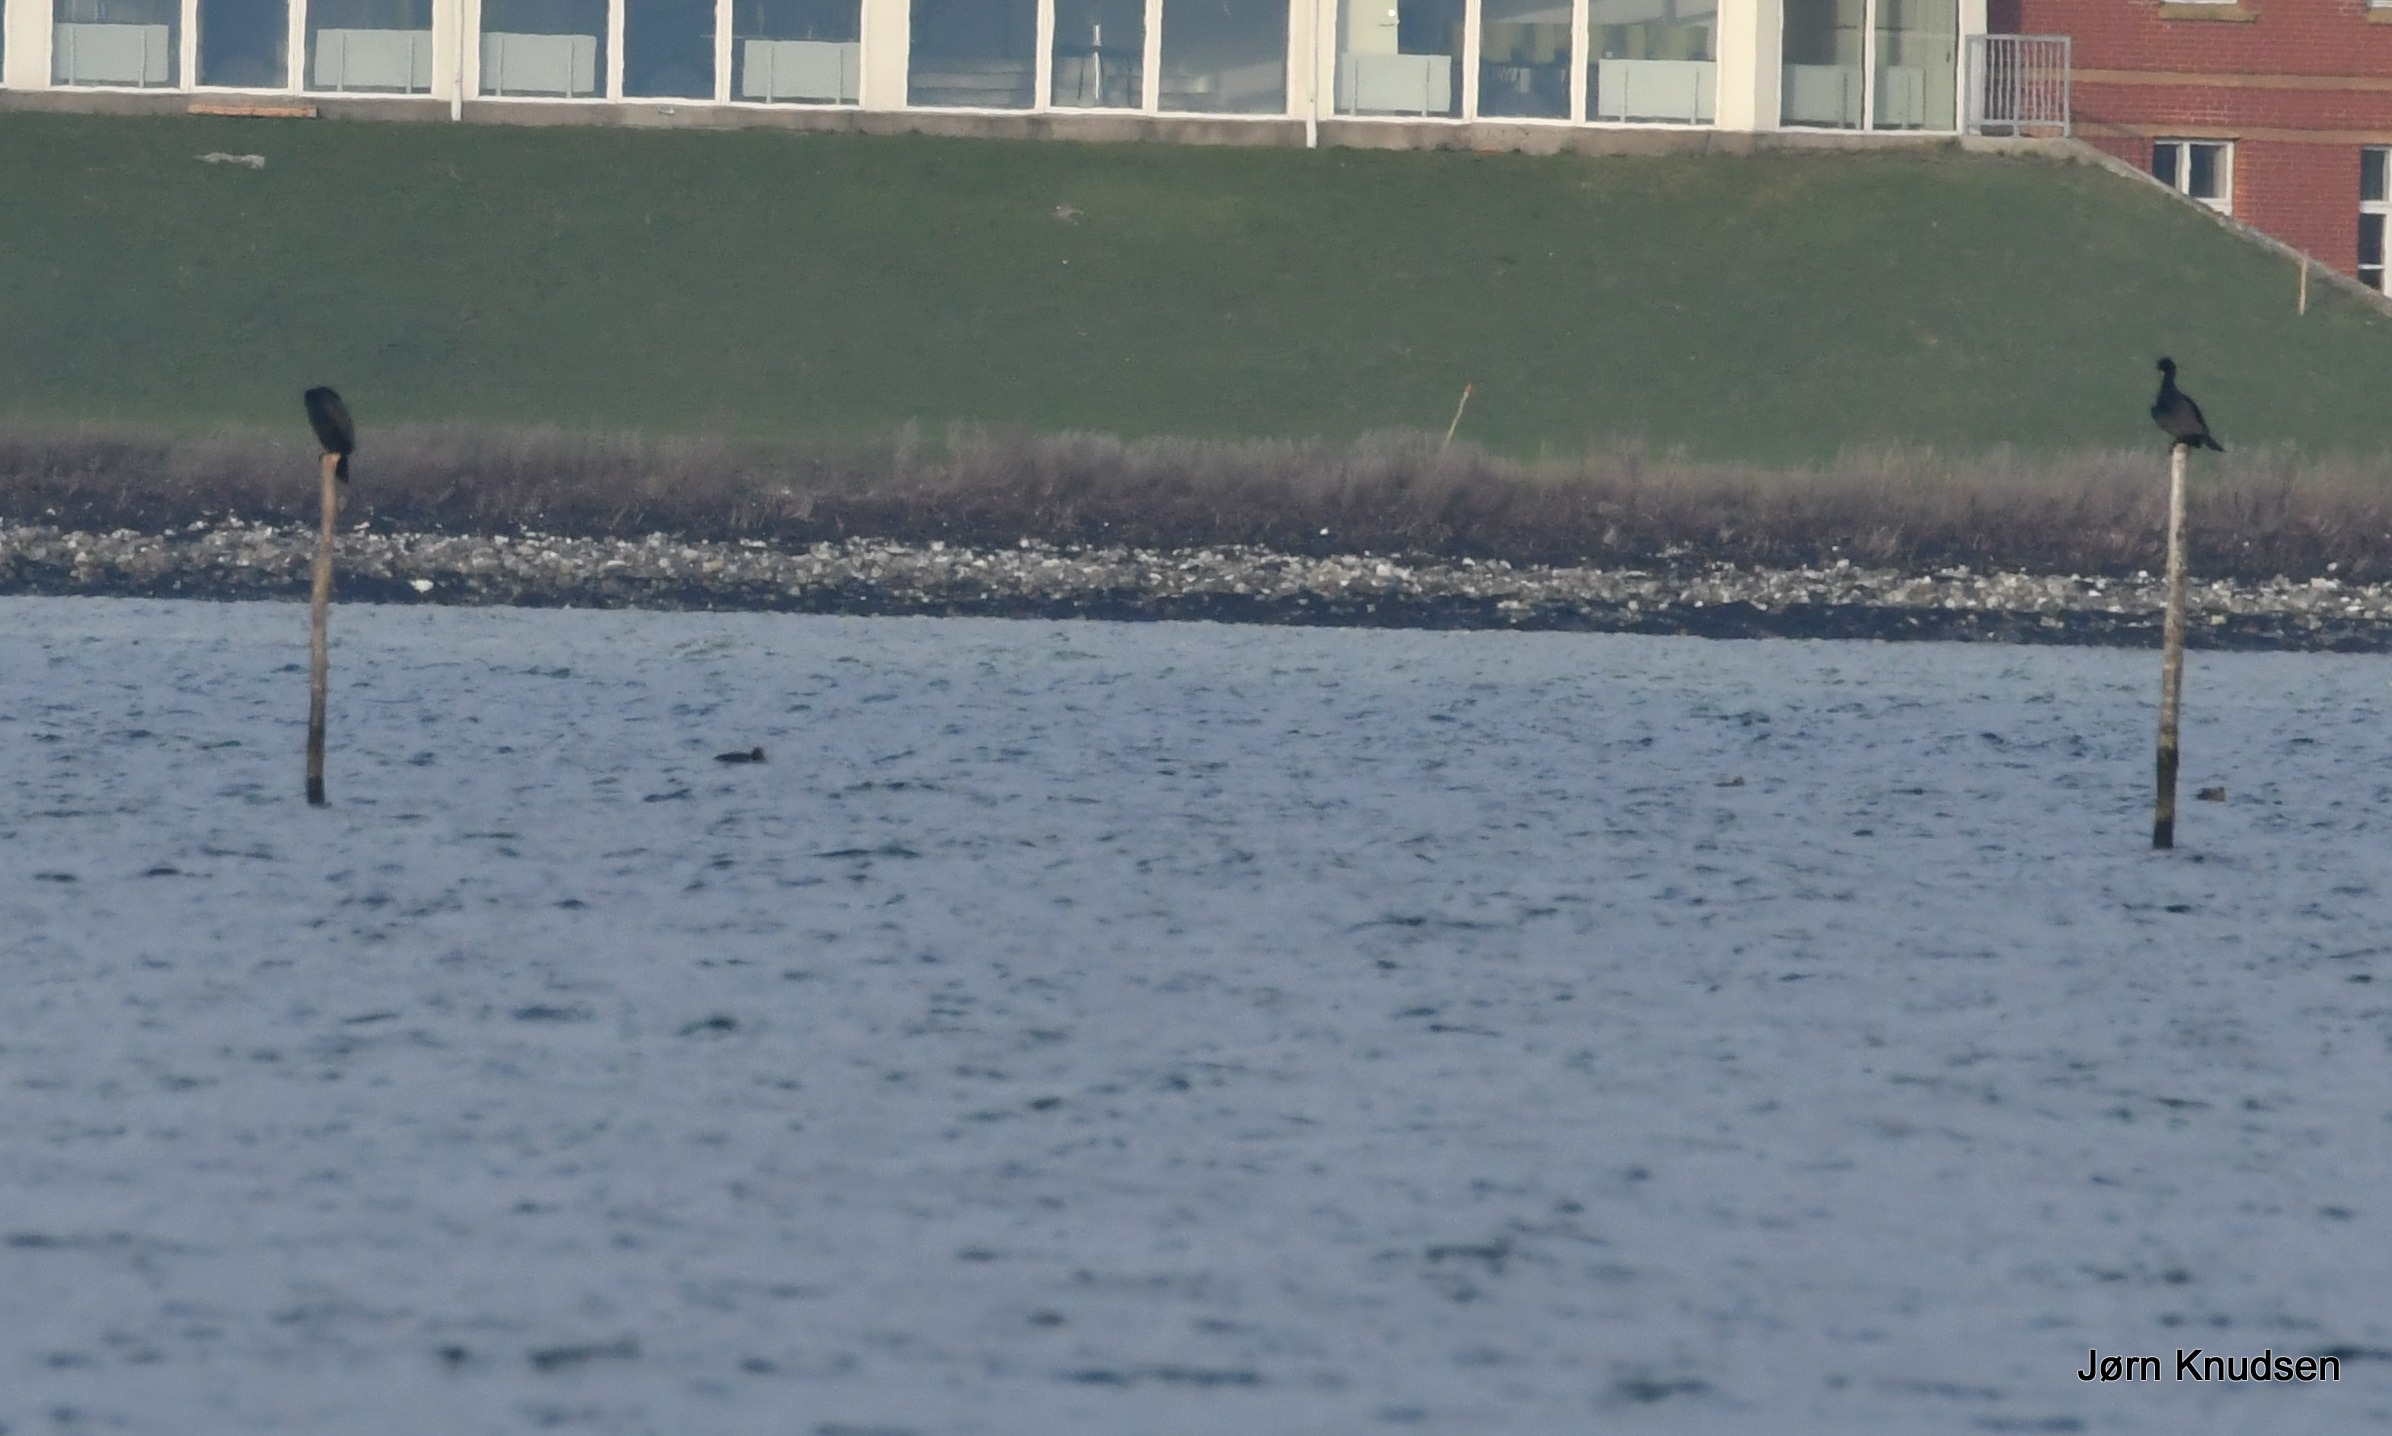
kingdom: Animalia
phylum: Chordata
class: Aves
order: Suliformes
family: Phalacrocoracidae
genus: Phalacrocorax
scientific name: Phalacrocorax carbo
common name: Skarv
